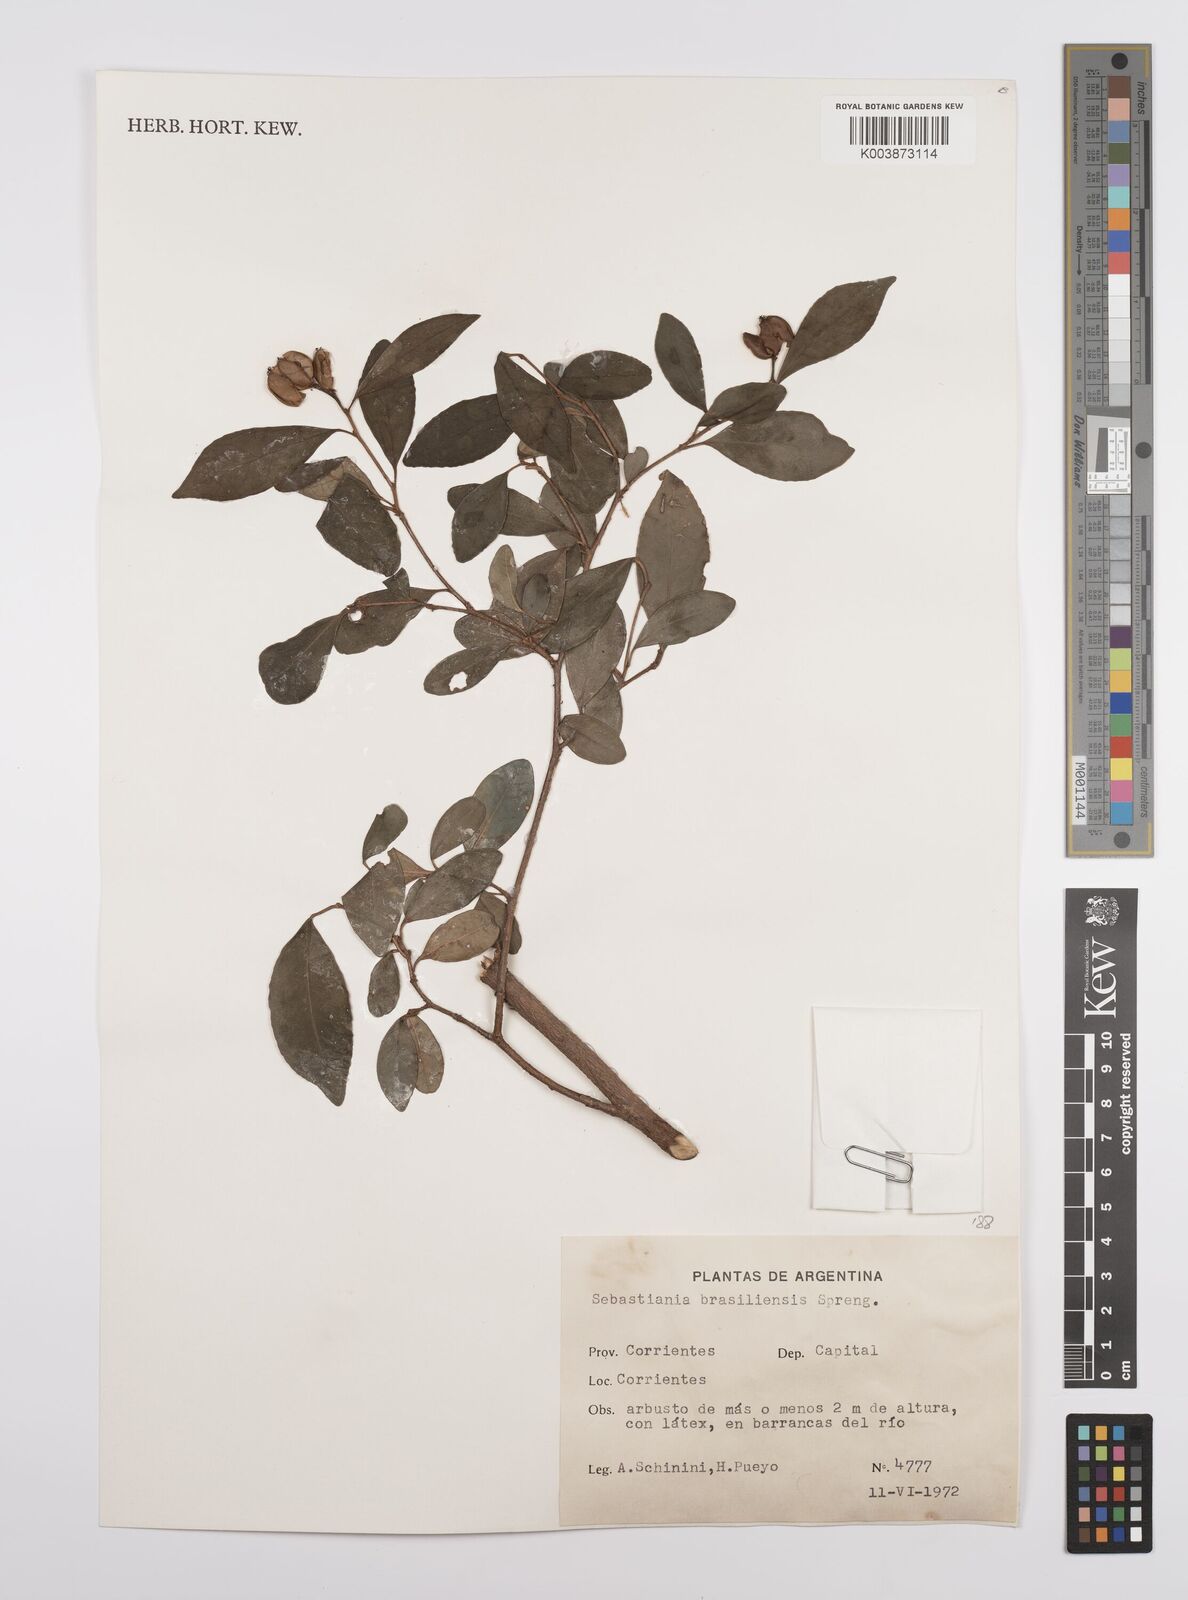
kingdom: Plantae
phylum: Tracheophyta
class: Magnoliopsida
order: Malpighiales
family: Euphorbiaceae
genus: Sebastiania
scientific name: Sebastiania brasiliensis
